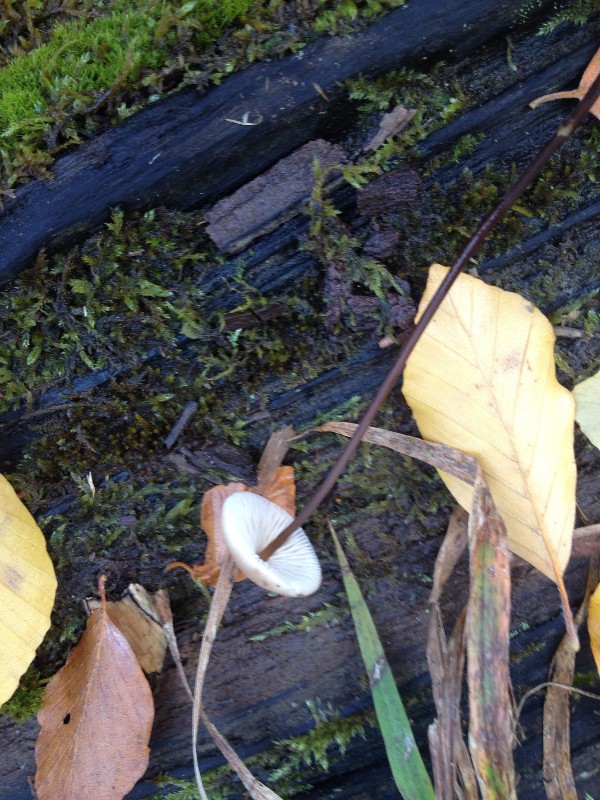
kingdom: Fungi
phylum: Basidiomycota
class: Agaricomycetes
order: Agaricales
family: Omphalotaceae
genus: Mycetinis
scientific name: Mycetinis alliaceus
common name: stor løghat
